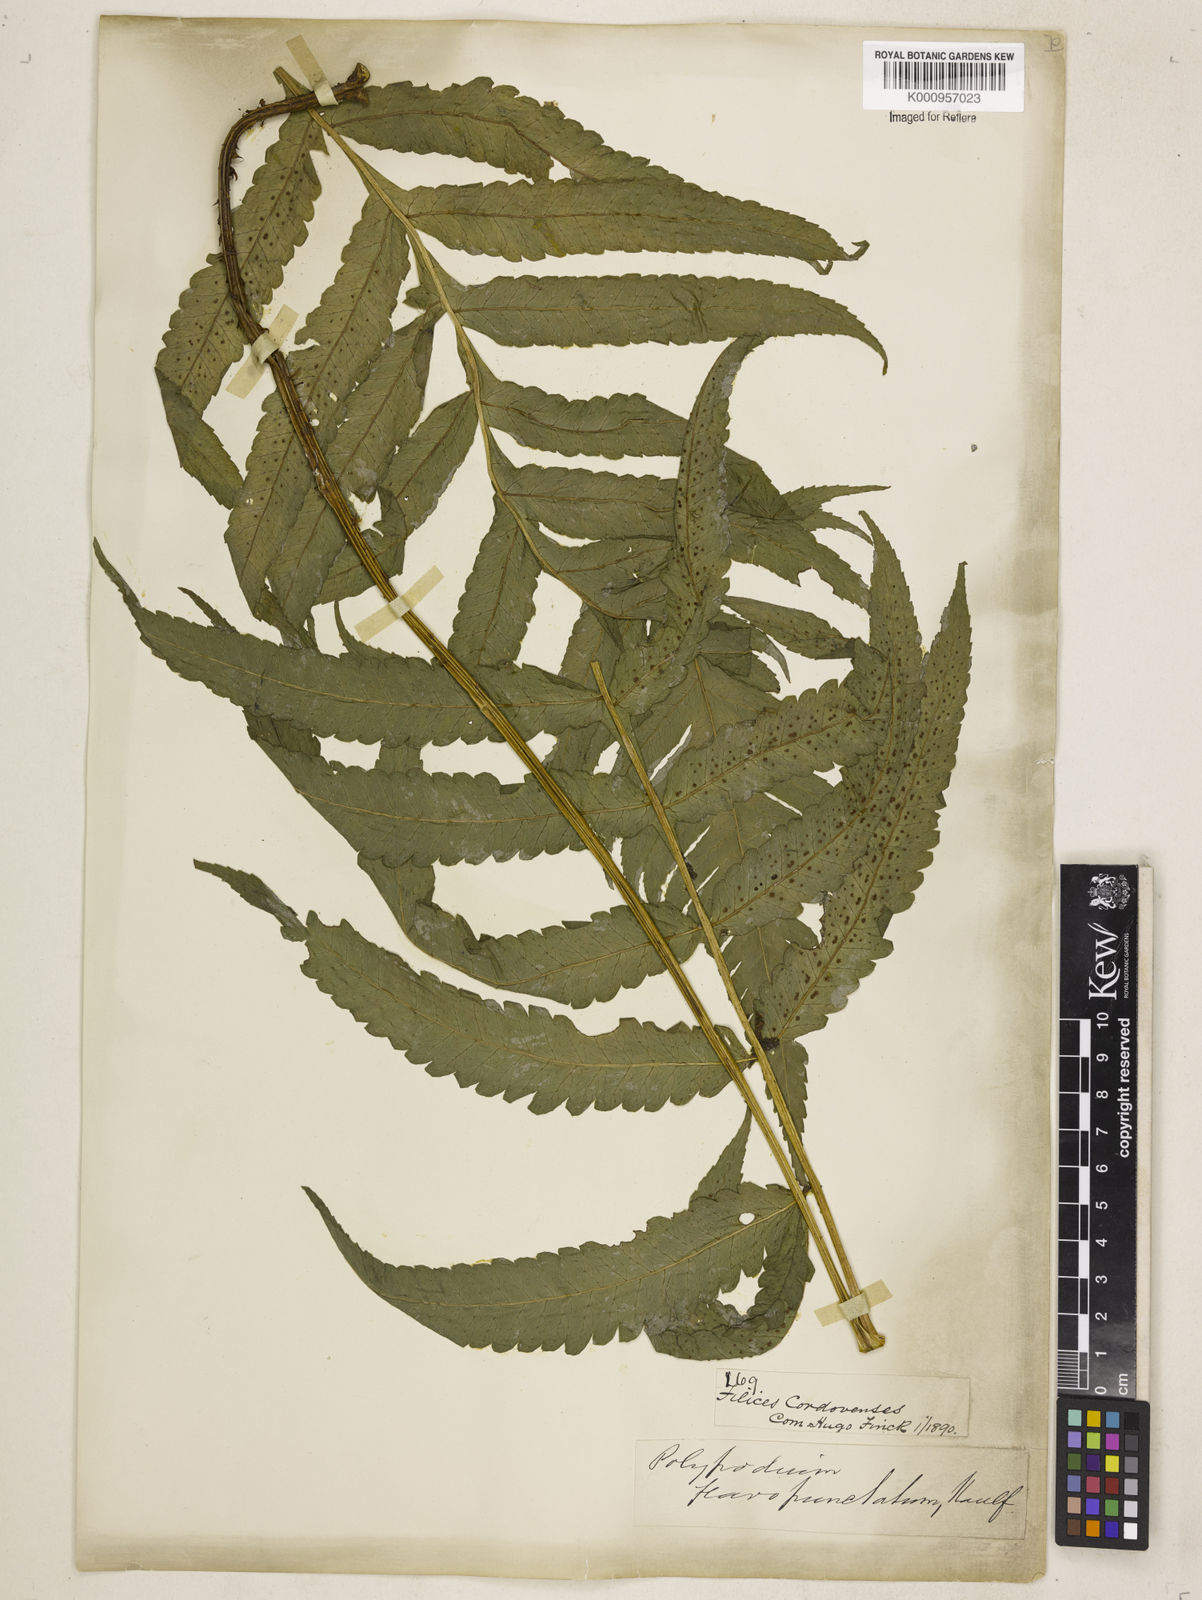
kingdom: Plantae
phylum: Tracheophyta
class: Polypodiopsida
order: Polypodiales
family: Dryopteridaceae
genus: Stigmatopteris
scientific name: Stigmatopteris
